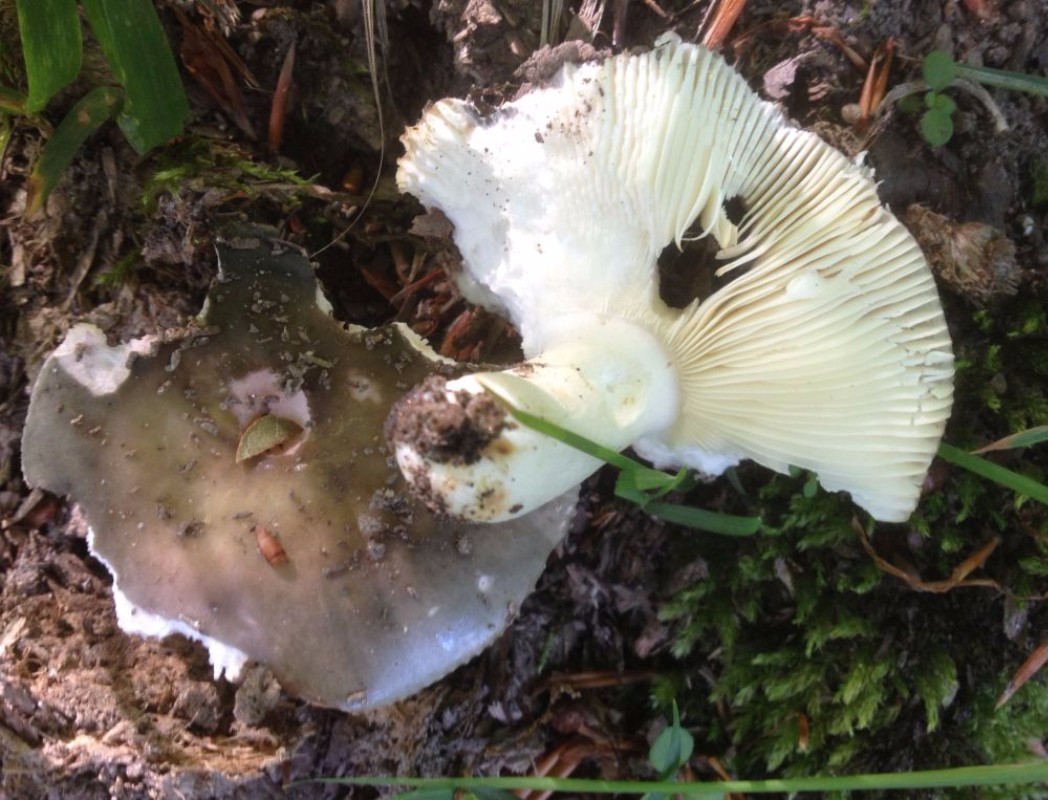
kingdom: Fungi
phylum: Basidiomycota
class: Agaricomycetes
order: Russulales
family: Russulaceae
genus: Russula
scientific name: Russula ionochlora
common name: violetgrøn skørhat
